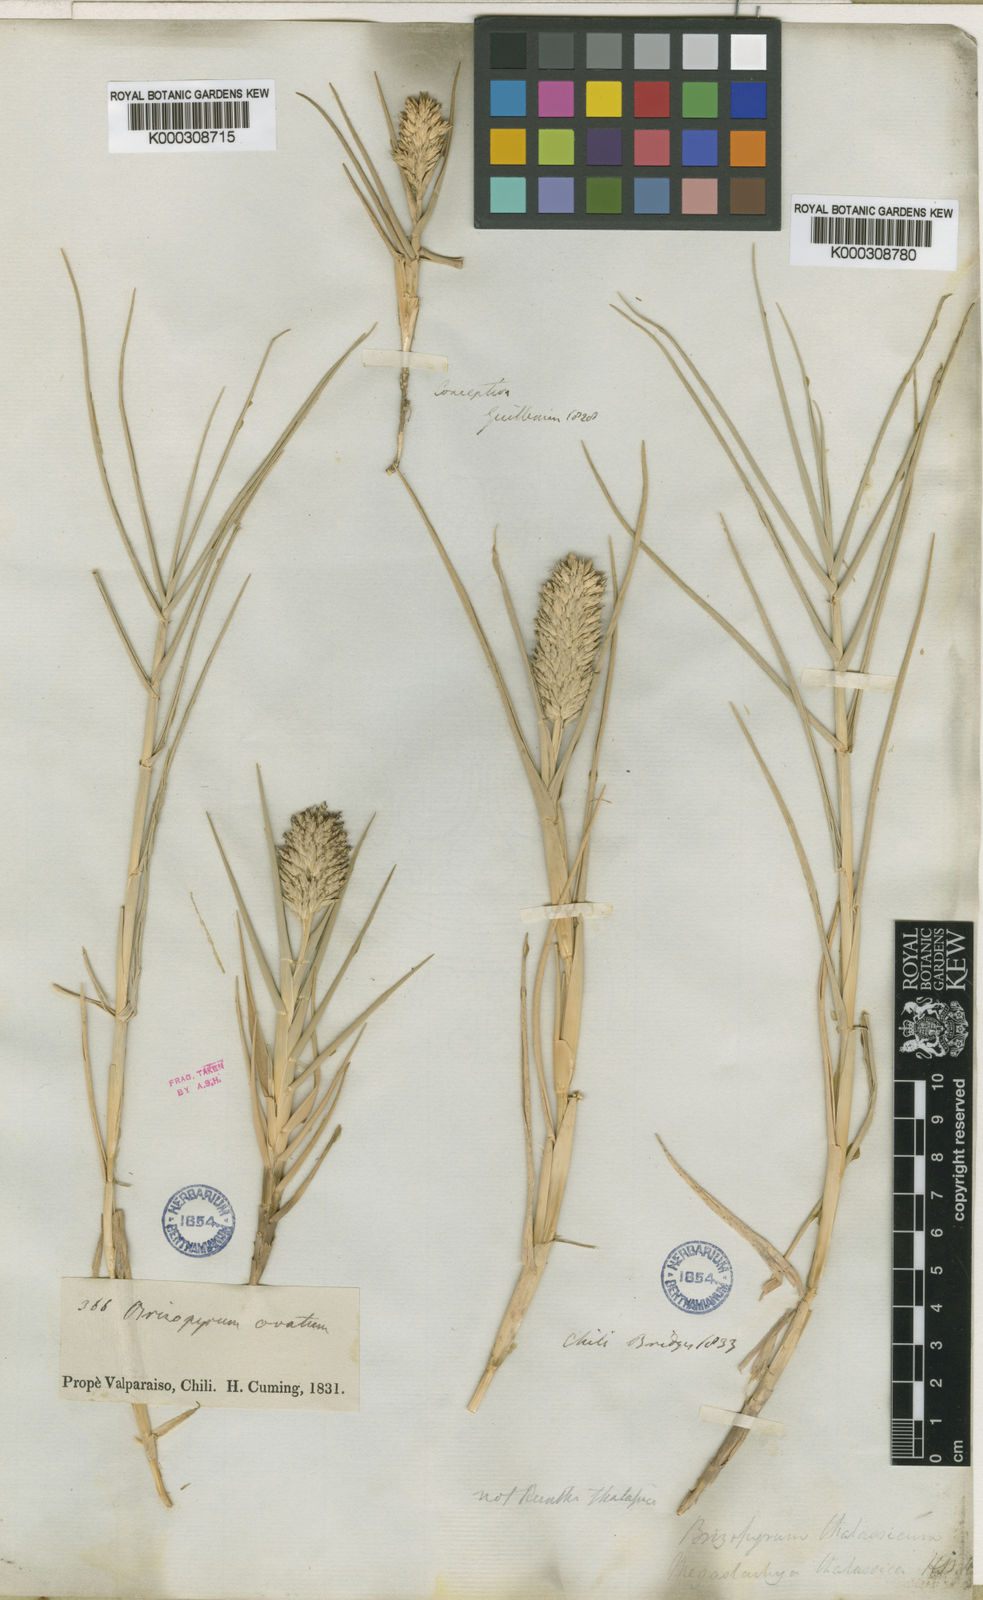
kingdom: Plantae
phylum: Tracheophyta
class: Liliopsida
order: Poales
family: Poaceae
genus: Distichlis
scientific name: Distichlis spicata
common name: Saltgrass
